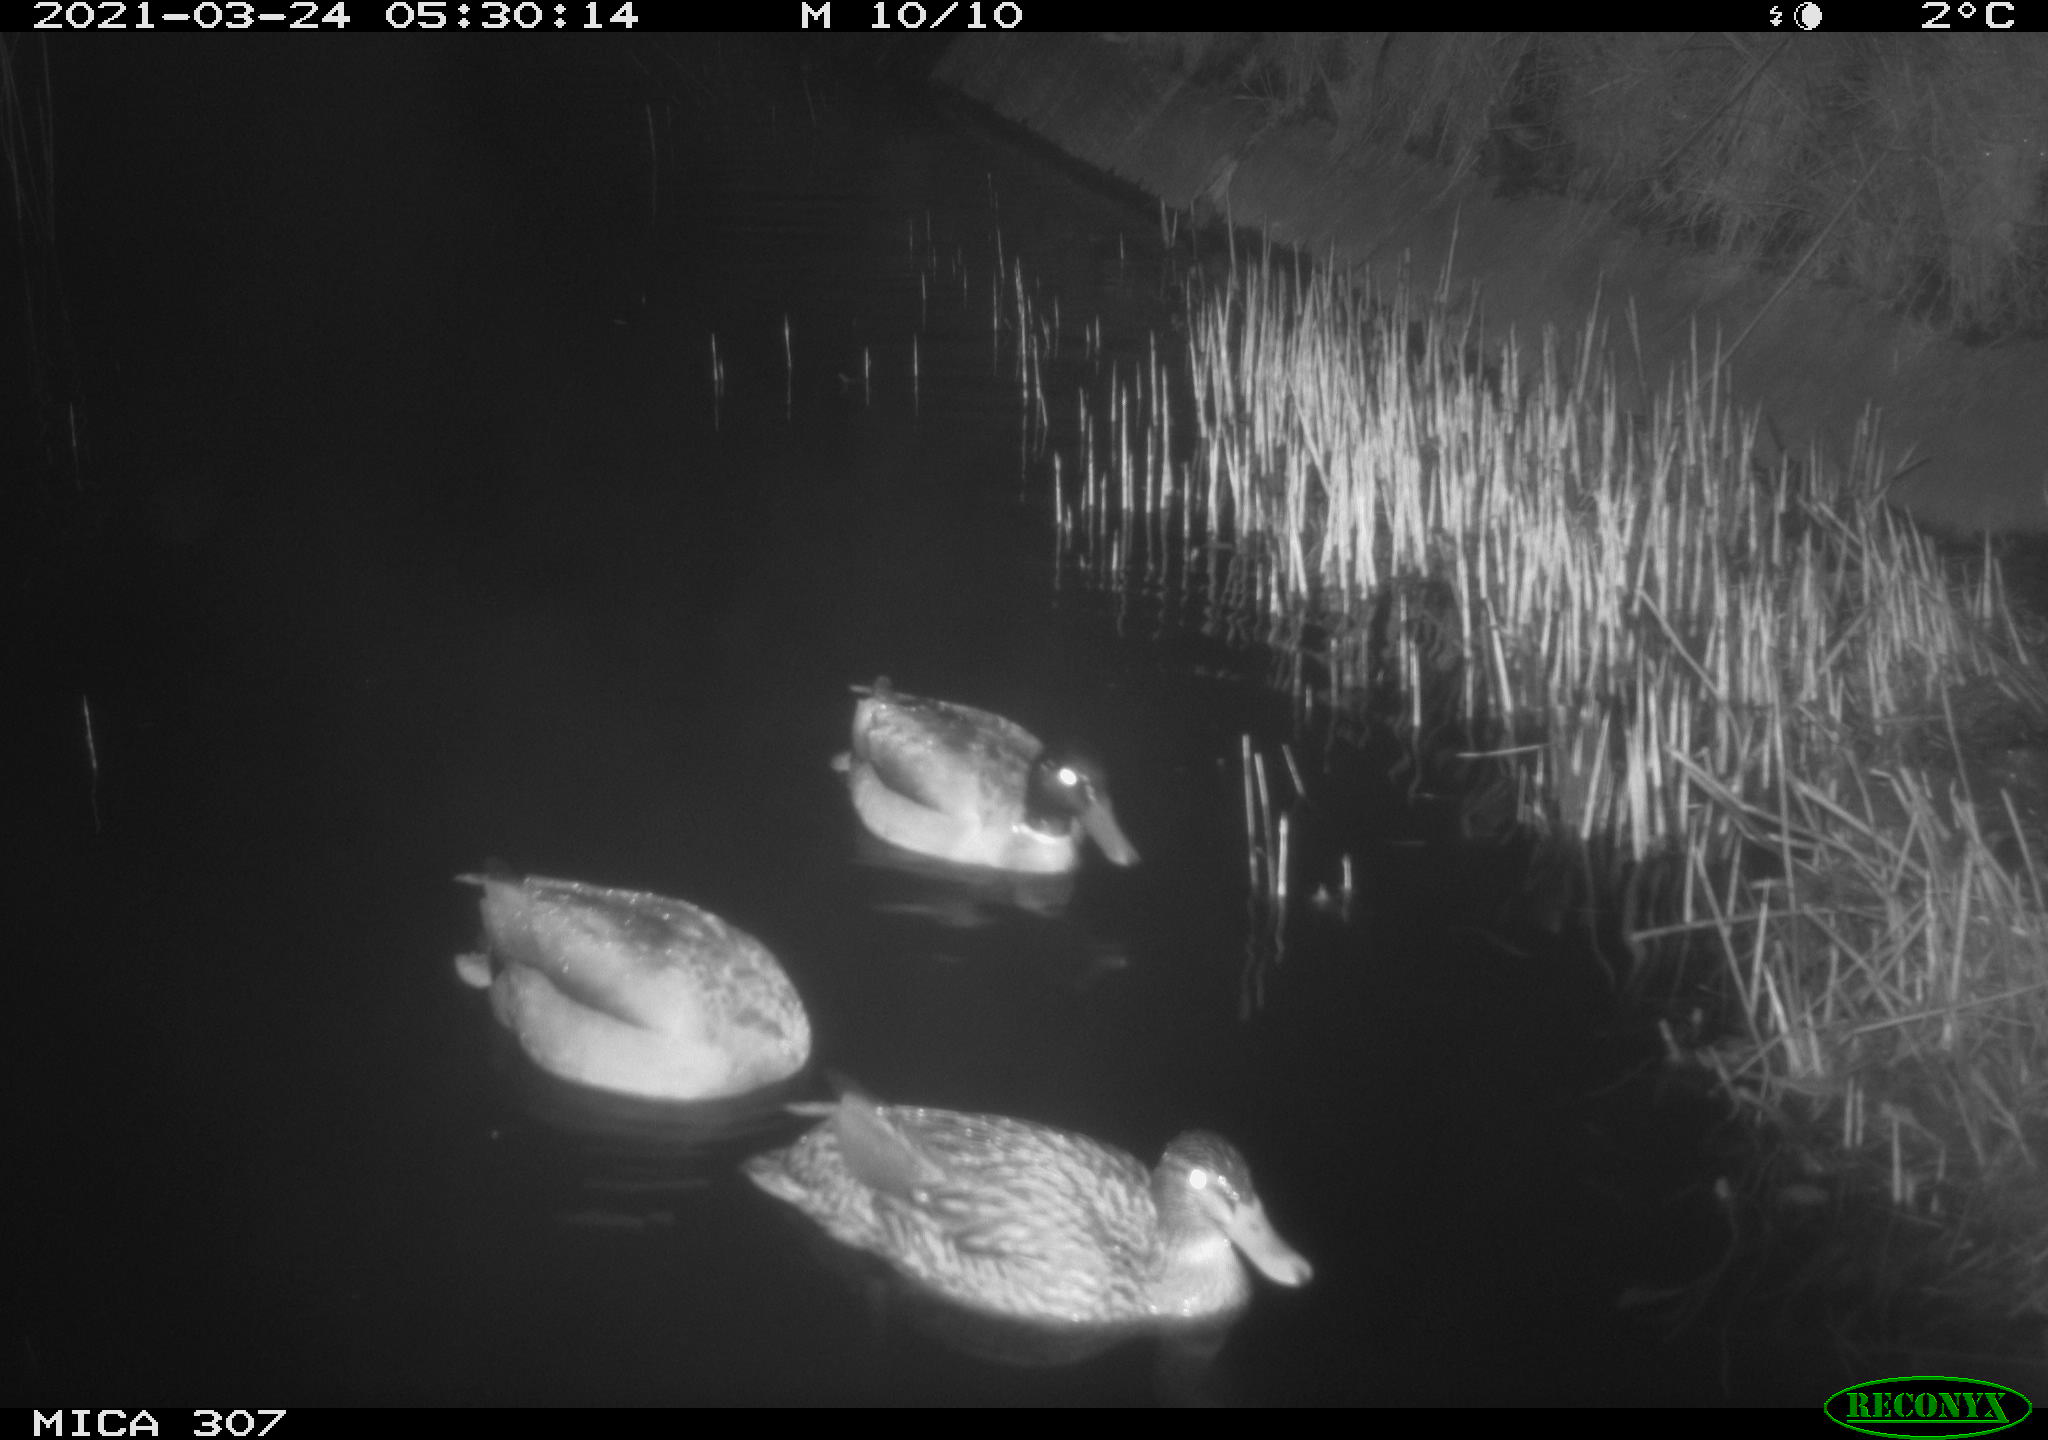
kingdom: Animalia
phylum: Chordata
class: Aves
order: Anseriformes
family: Anatidae
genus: Anas
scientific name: Anas platyrhynchos
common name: Mallard
